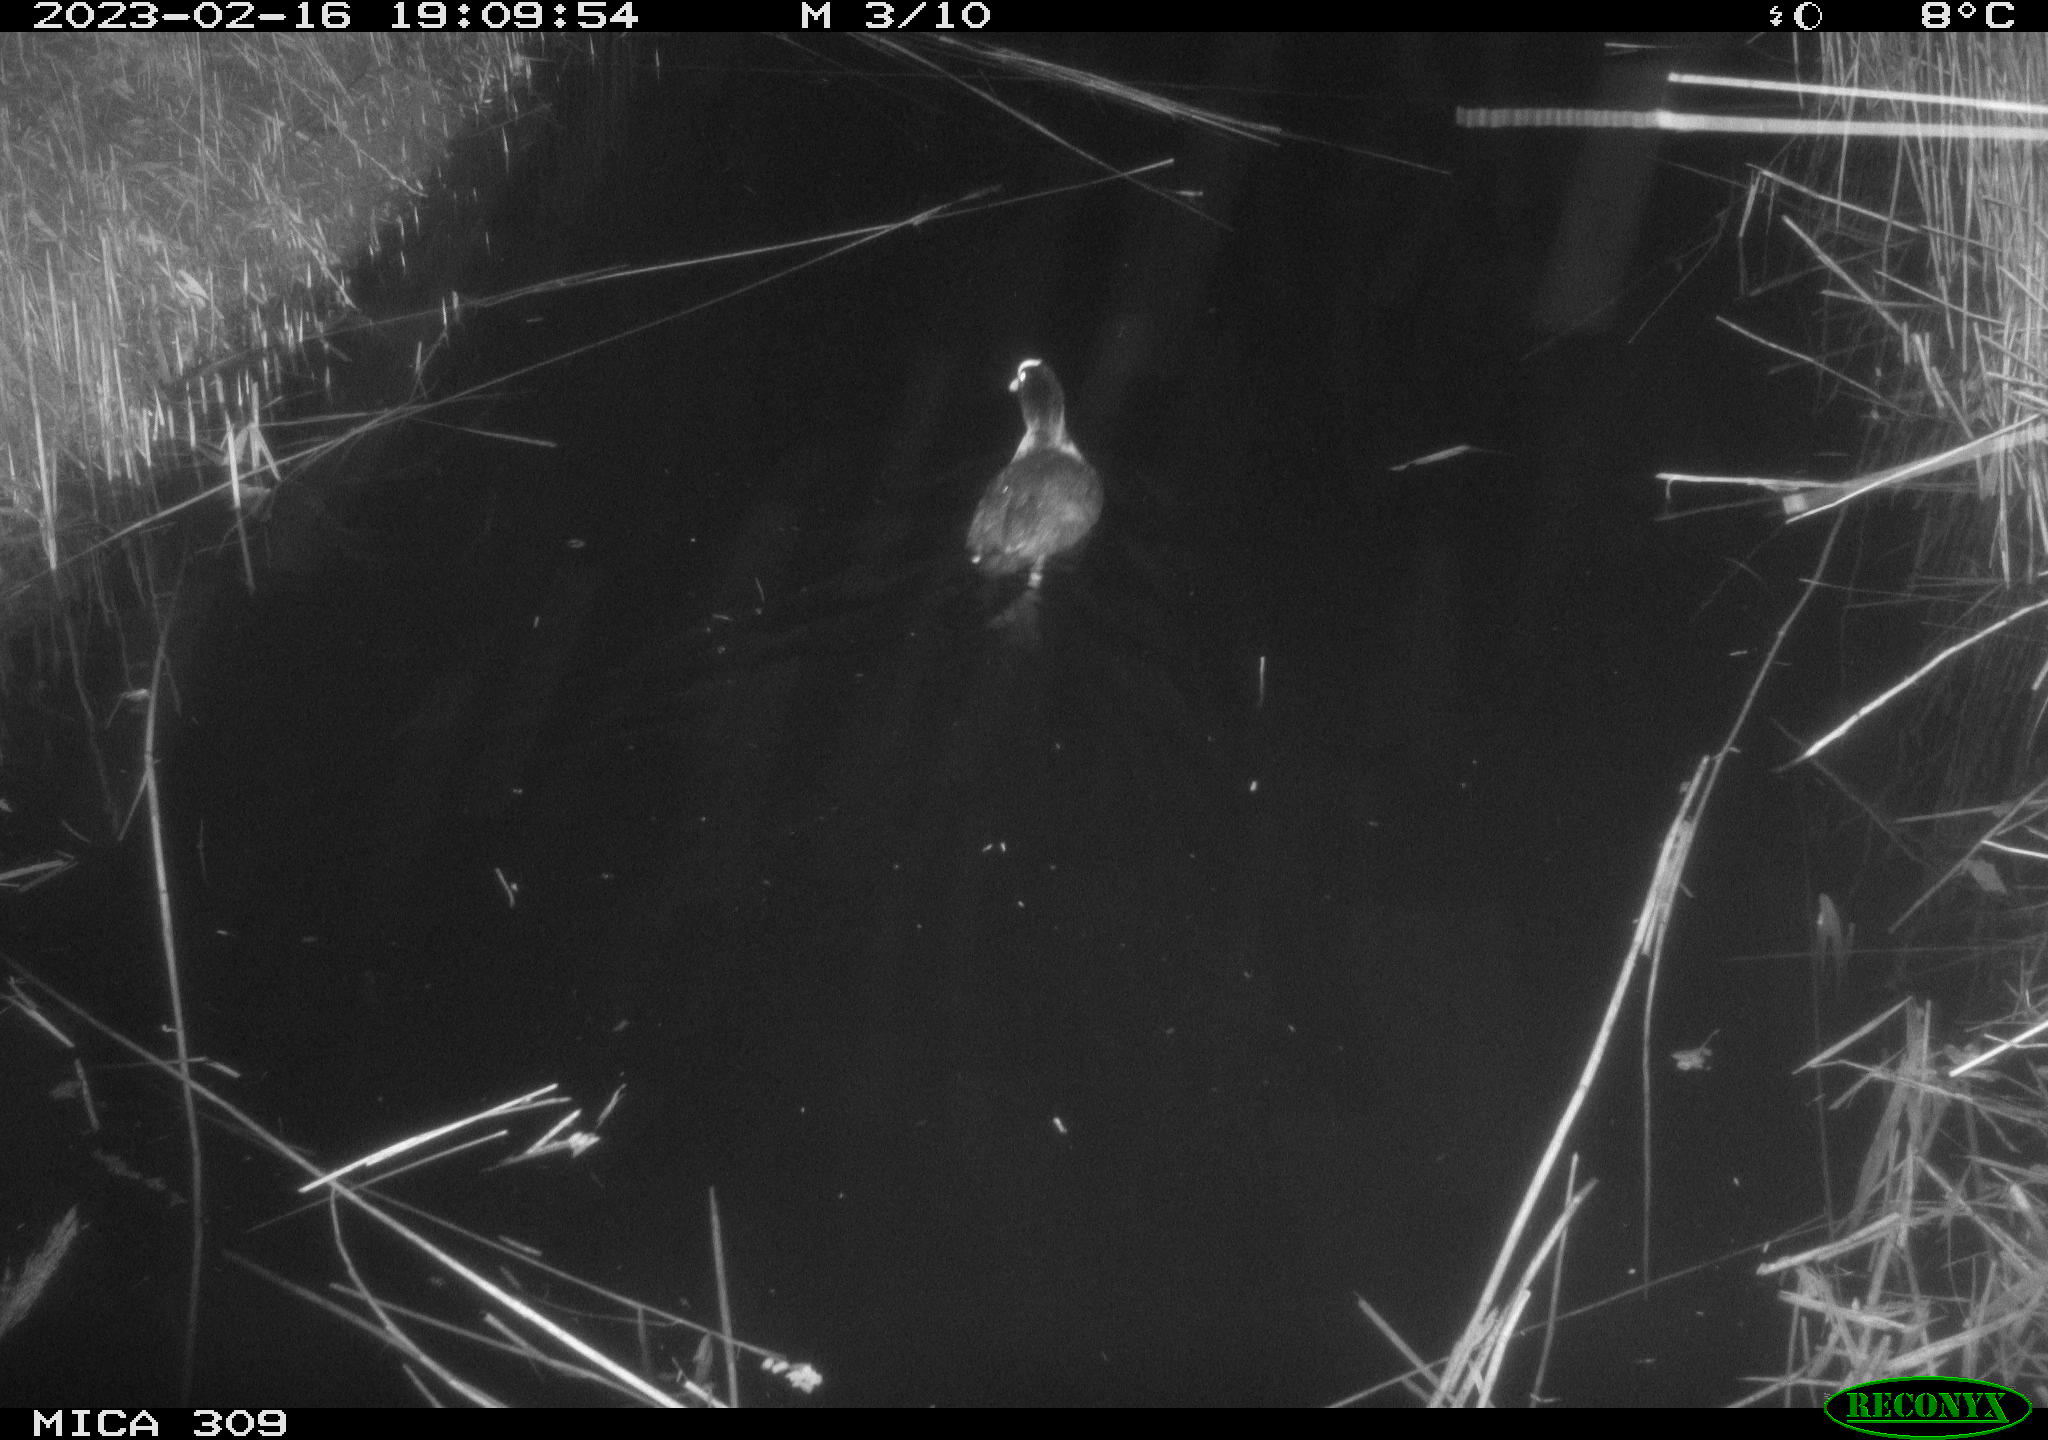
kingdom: Animalia
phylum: Chordata
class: Aves
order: Gruiformes
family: Rallidae
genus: Fulica
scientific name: Fulica atra
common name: Eurasian coot
